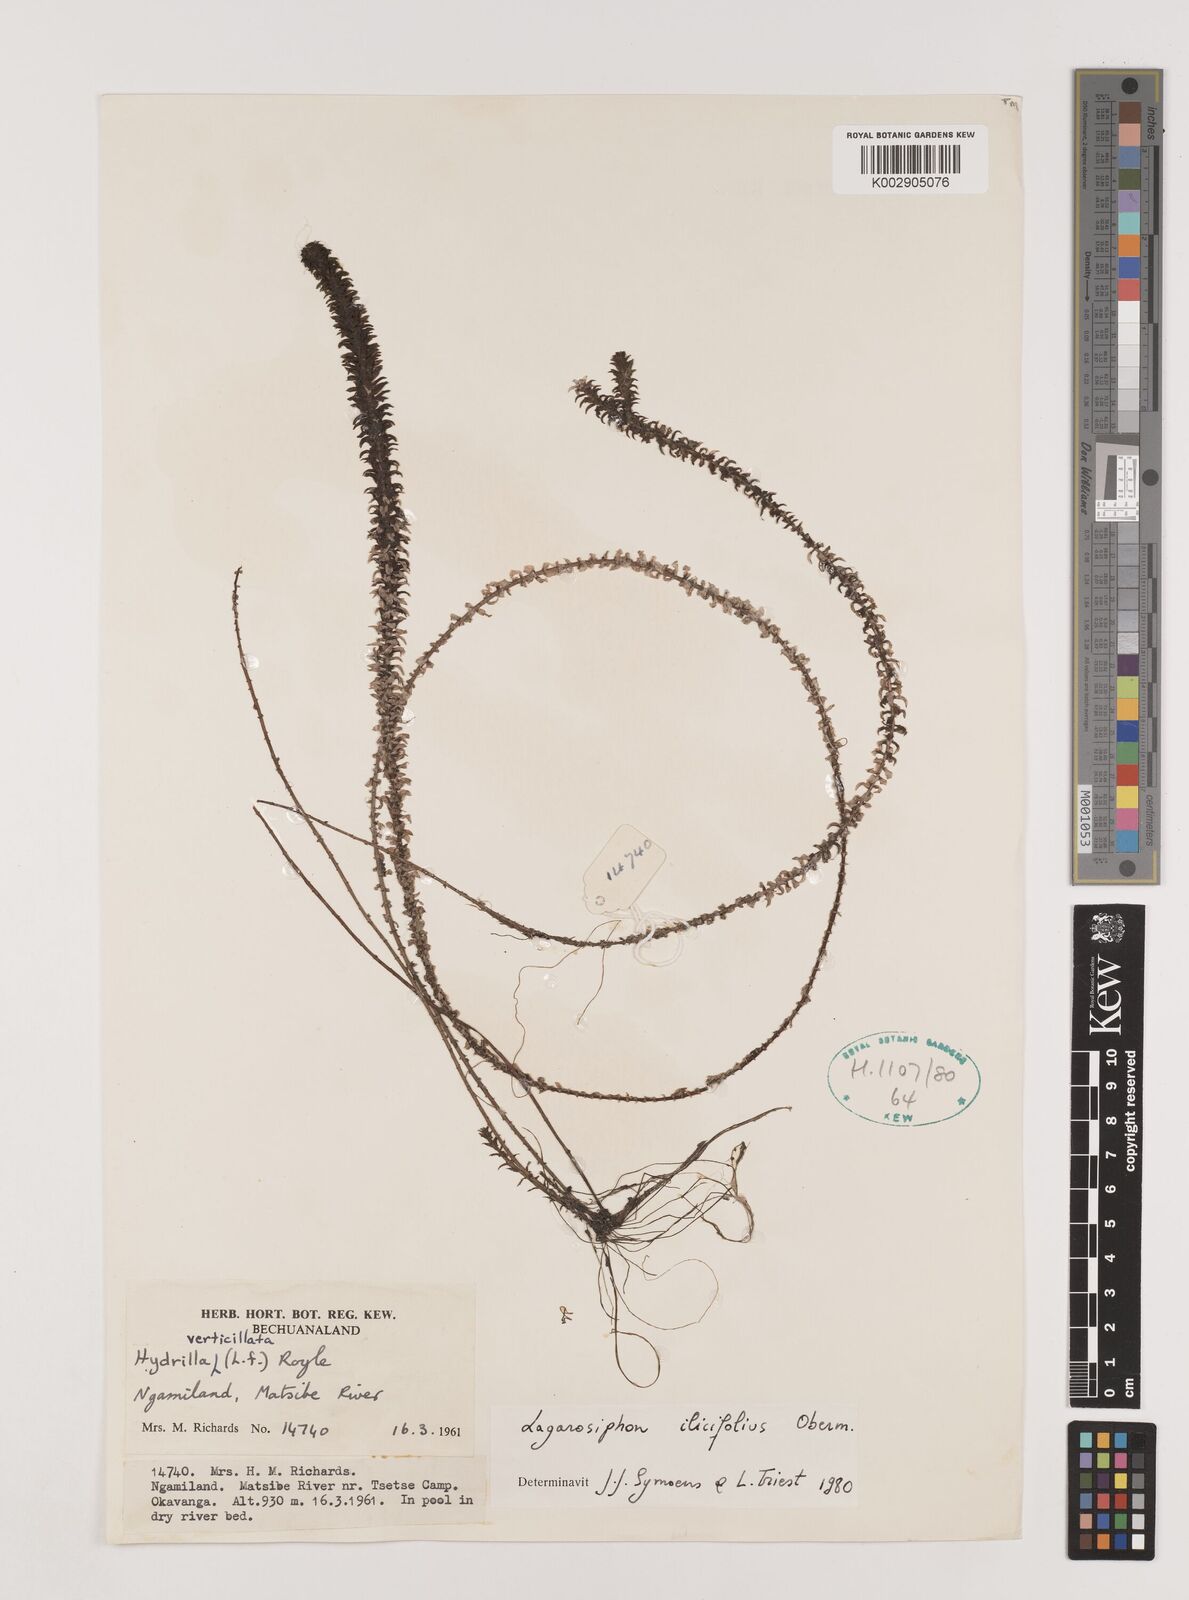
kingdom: Plantae
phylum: Tracheophyta
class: Liliopsida
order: Alismatales
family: Hydrocharitaceae
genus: Lagarosiphon
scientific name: Lagarosiphon ilicifolius
